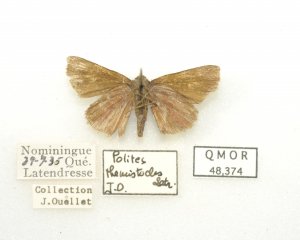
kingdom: Animalia
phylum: Arthropoda
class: Insecta
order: Lepidoptera
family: Hesperiidae
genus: Polites
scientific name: Polites themistocles
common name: Tawny-edged Skipper
